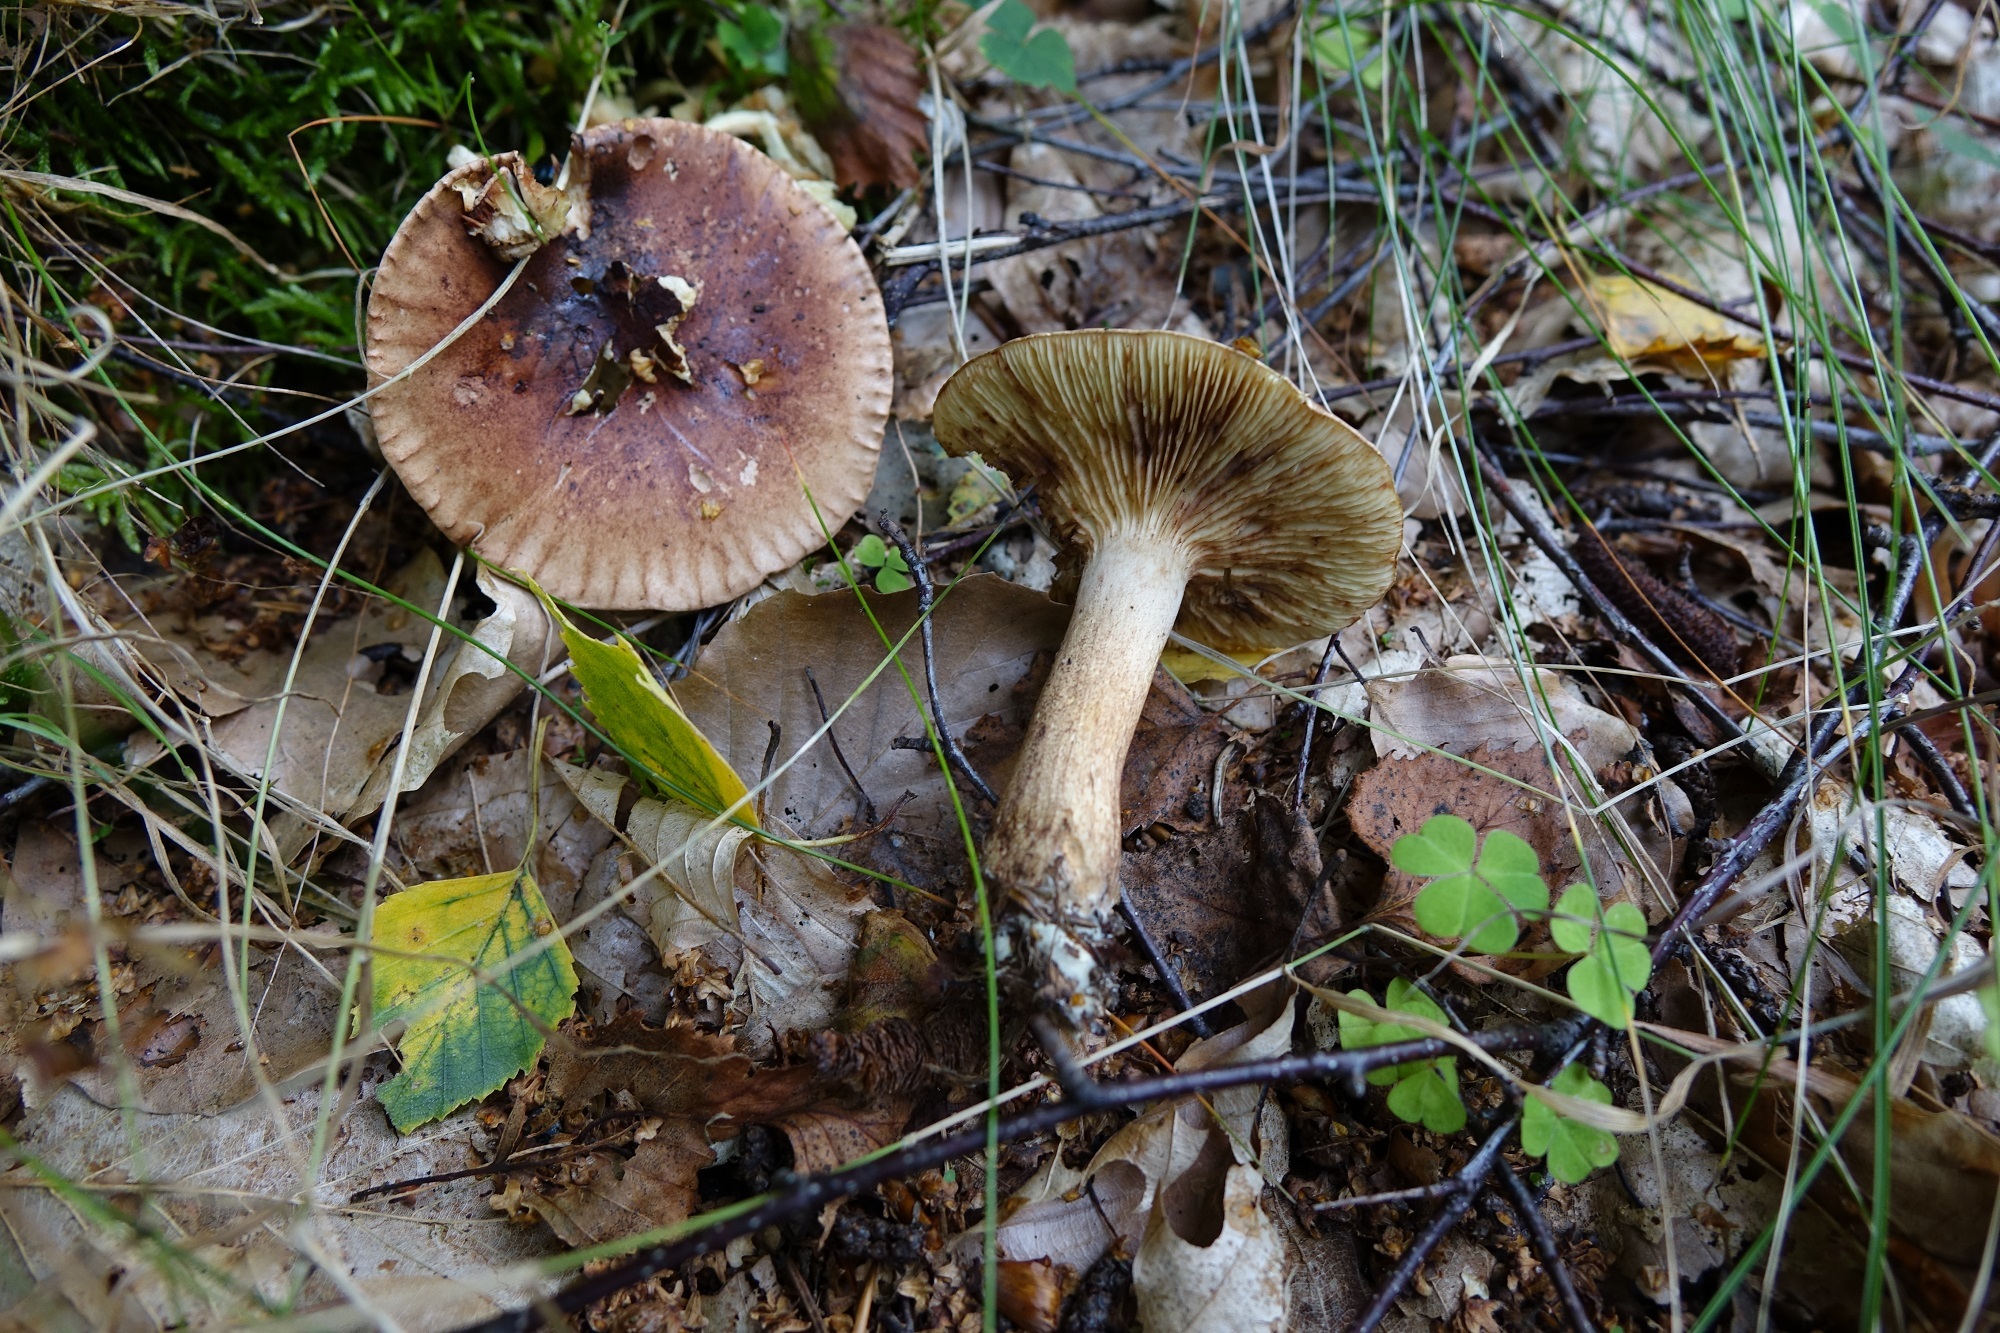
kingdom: Fungi
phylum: Basidiomycota
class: Agaricomycetes
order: Agaricales
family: Tricholomataceae
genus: Tricholoma
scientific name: Tricholoma fulvum
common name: Birch knight
